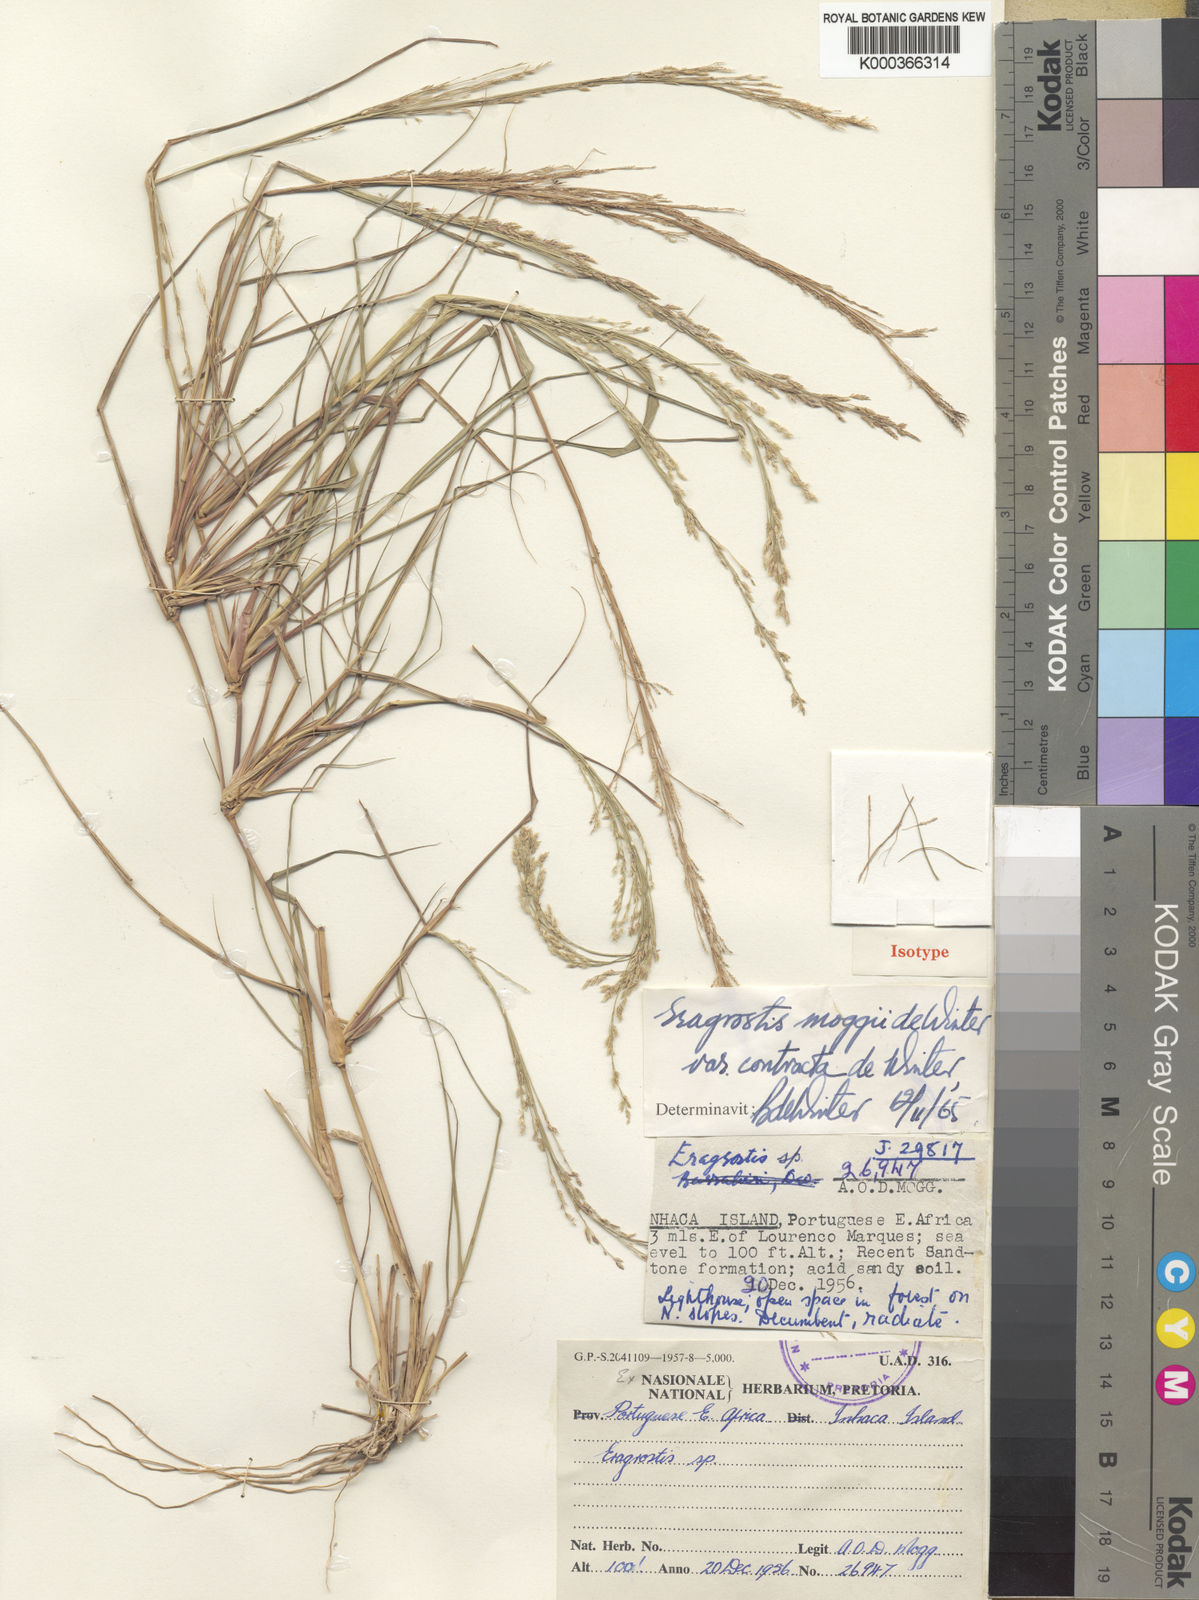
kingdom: Plantae
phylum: Tracheophyta
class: Liliopsida
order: Poales
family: Poaceae
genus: Eragrostis
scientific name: Eragrostis moggii
